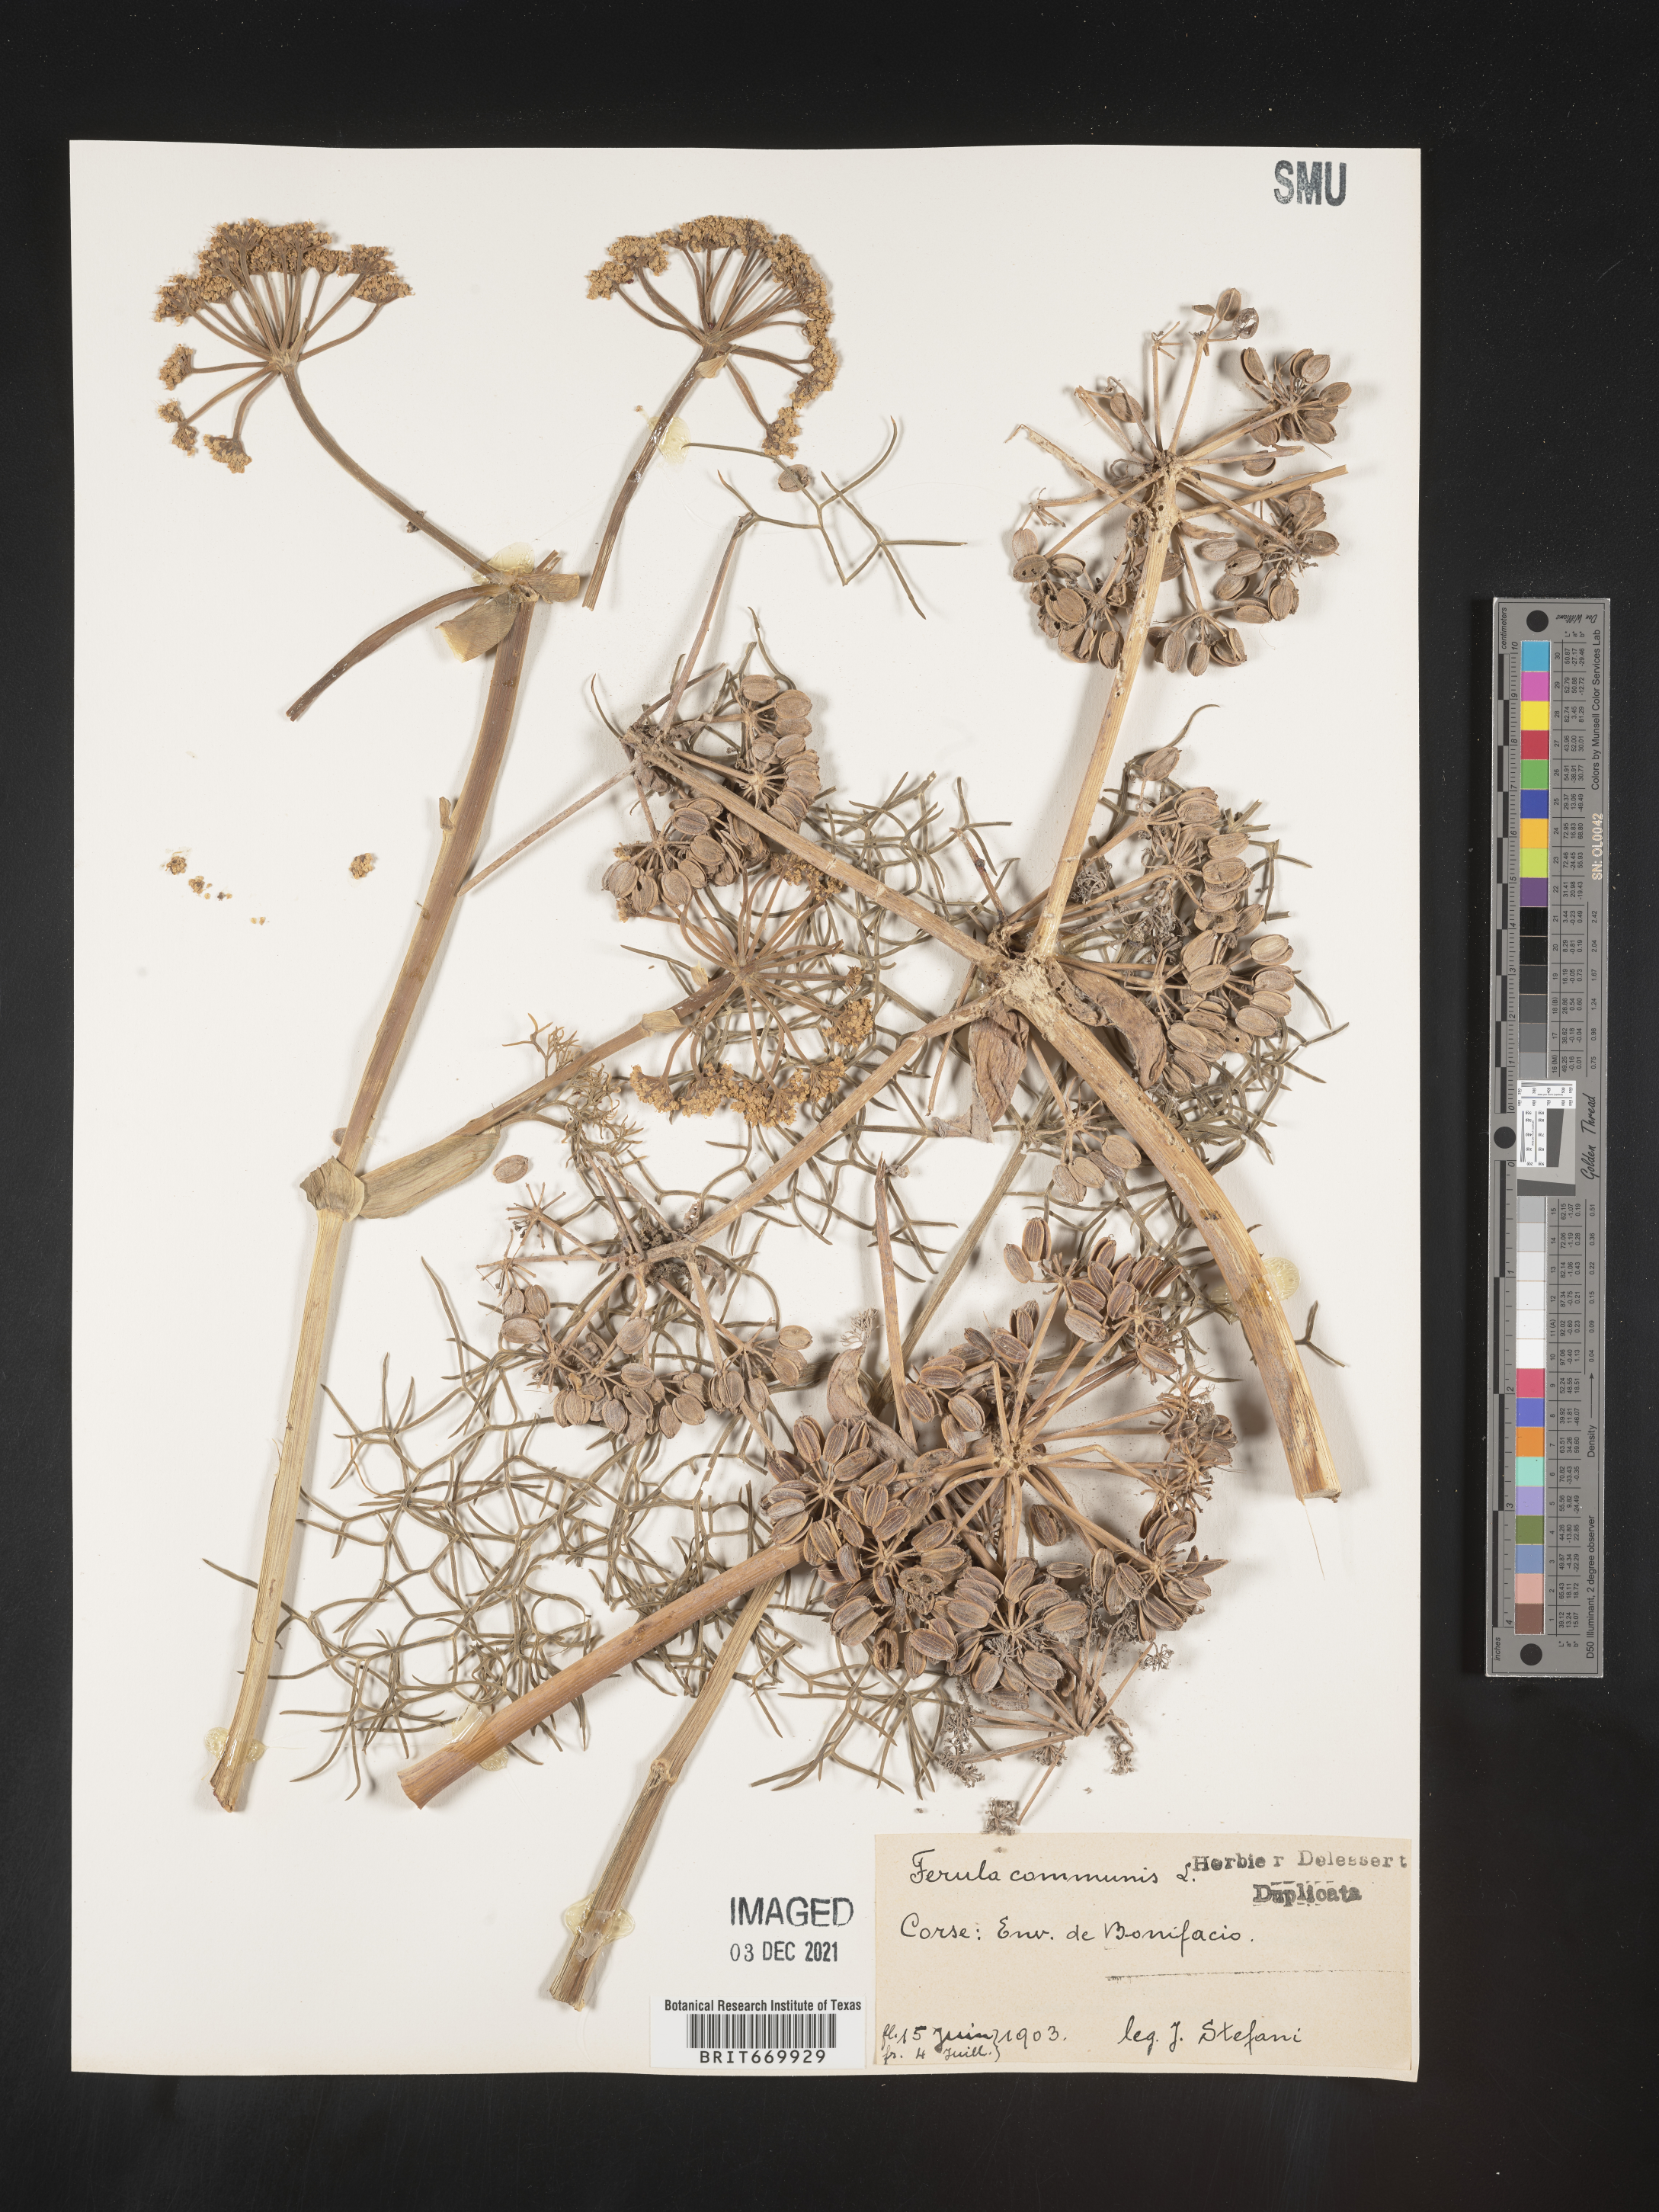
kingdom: Plantae
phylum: Tracheophyta
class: Magnoliopsida
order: Apiales
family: Apiaceae
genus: Ferula
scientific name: Ferula
